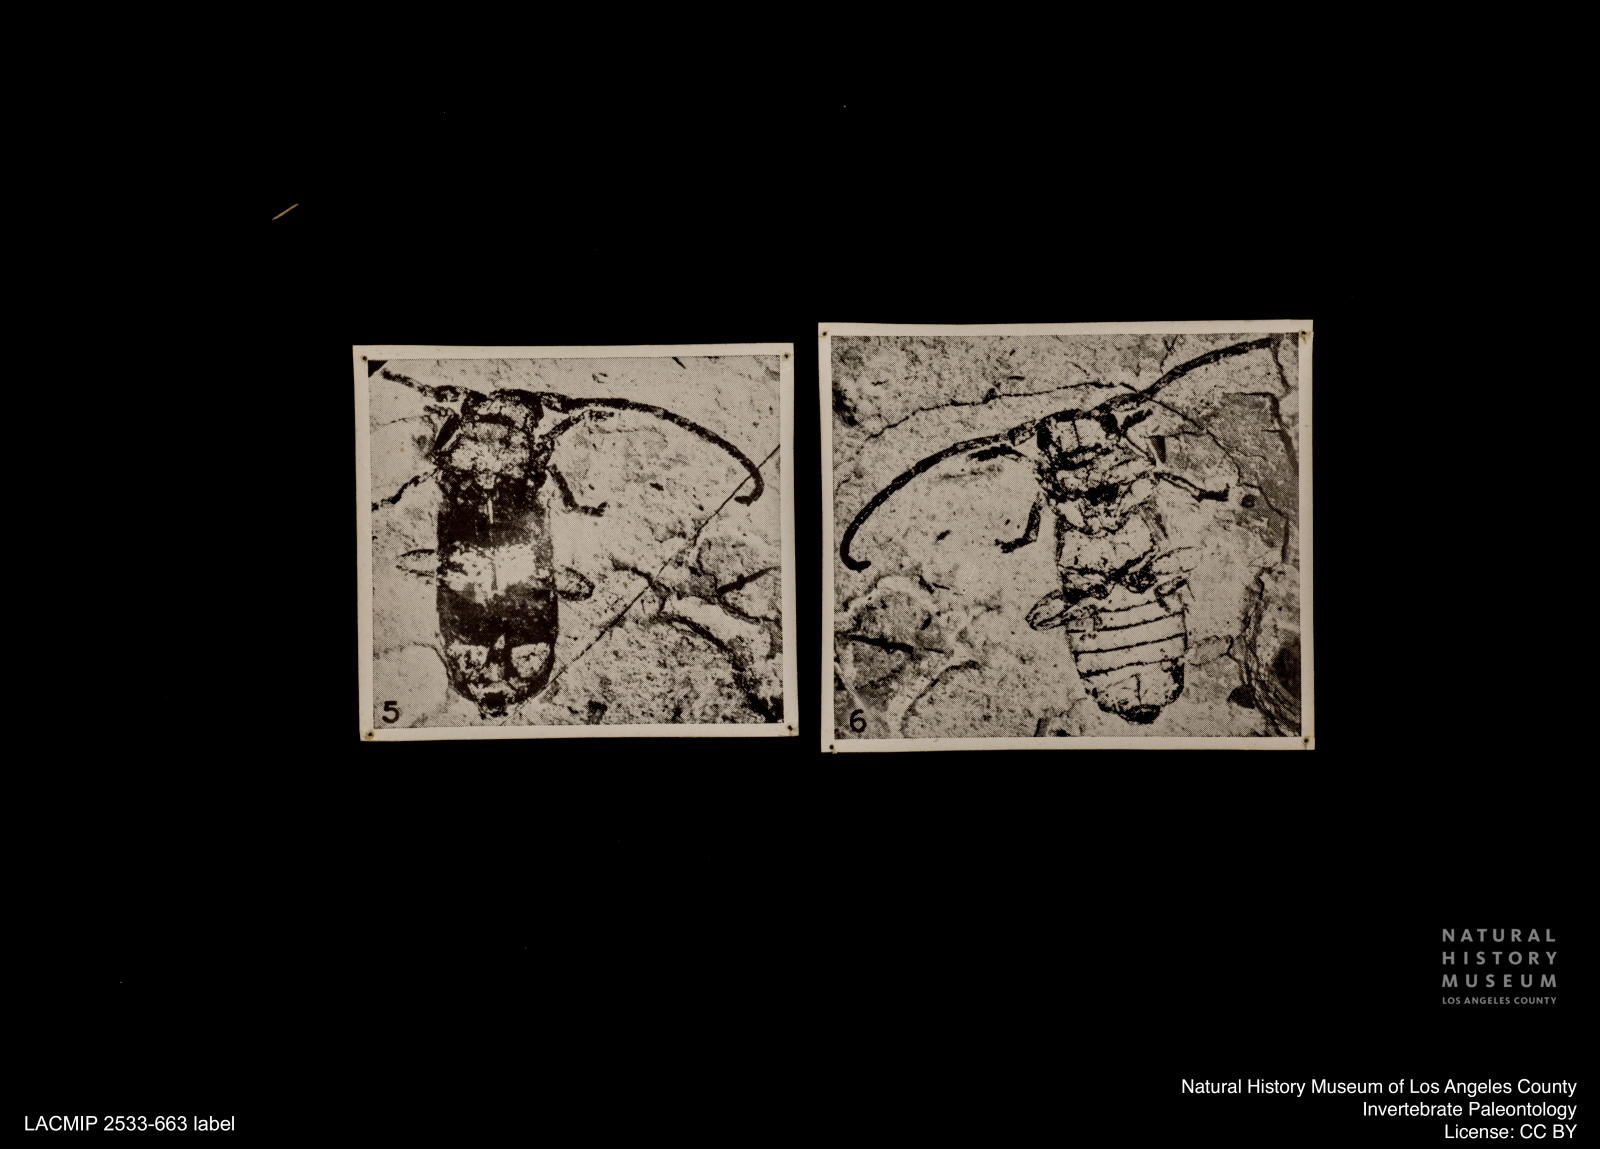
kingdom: Animalia
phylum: Arthropoda
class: Insecta
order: Coleoptera
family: Cerambycidae
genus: Anaesthetis
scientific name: Anaesthetis magnificus
